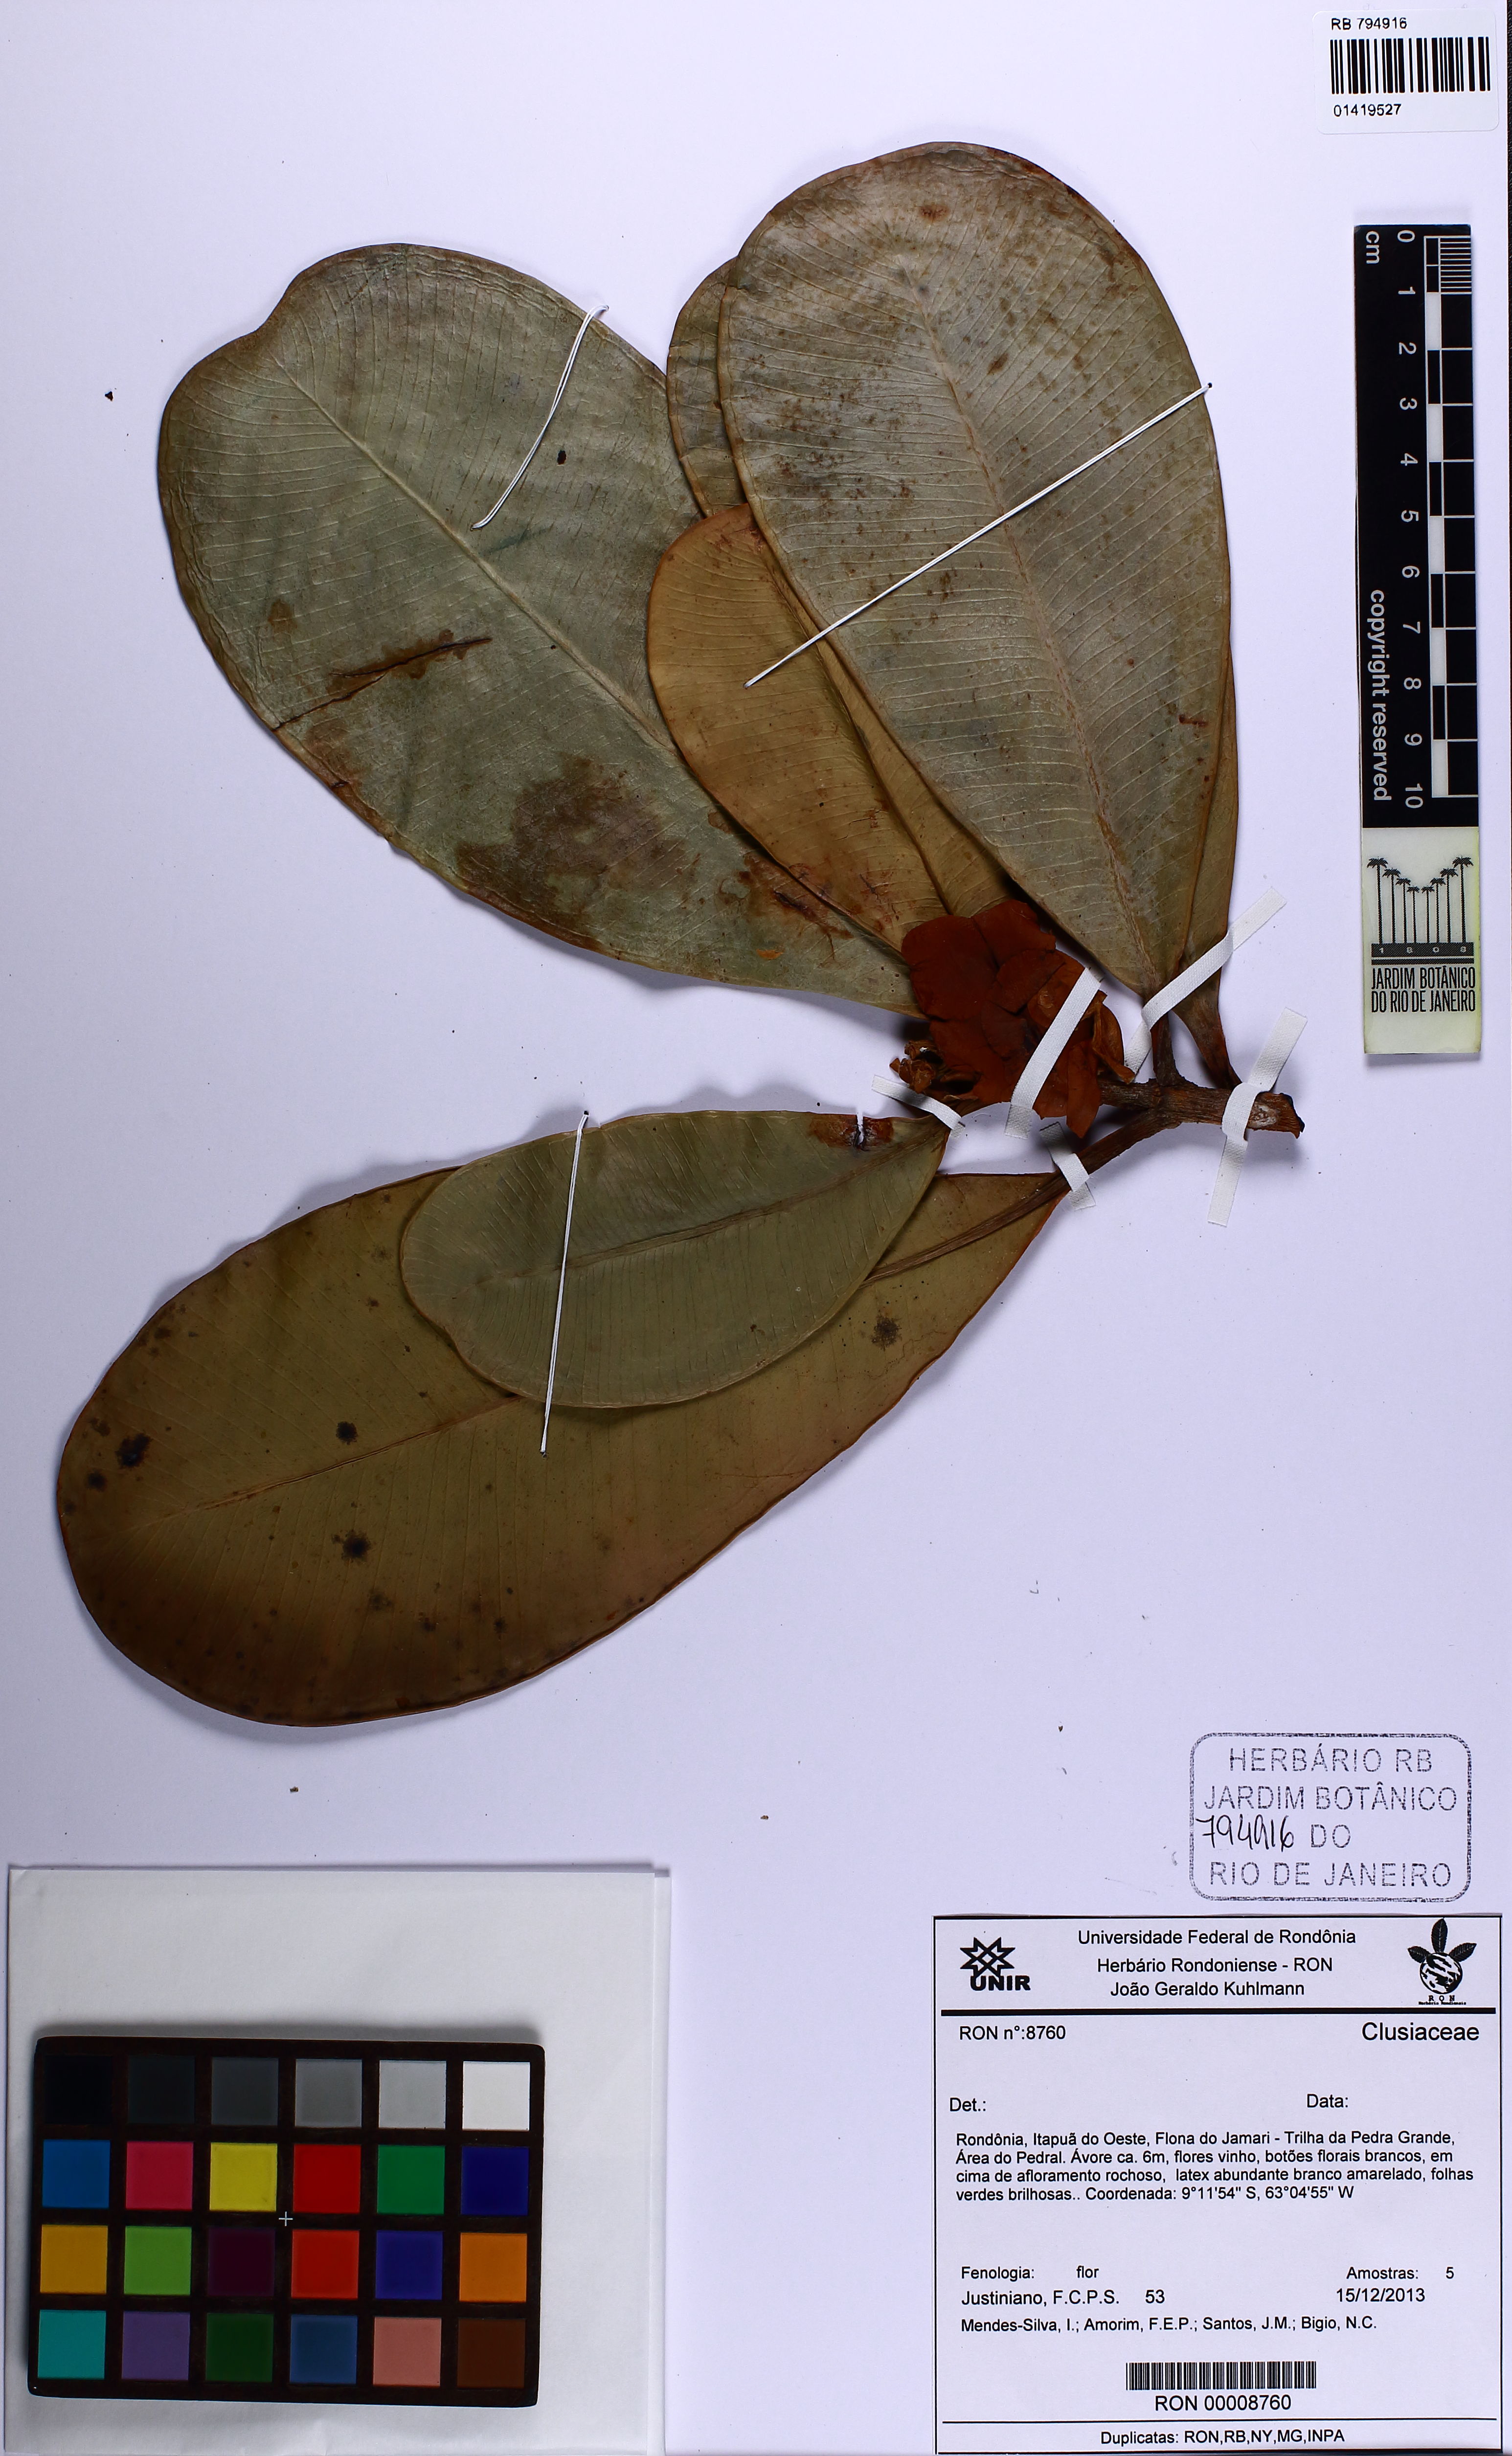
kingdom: Plantae
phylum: Tracheophyta
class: Magnoliopsida
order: Malpighiales
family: Clusiaceae
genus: Clusia
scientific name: Clusia weddelliana
